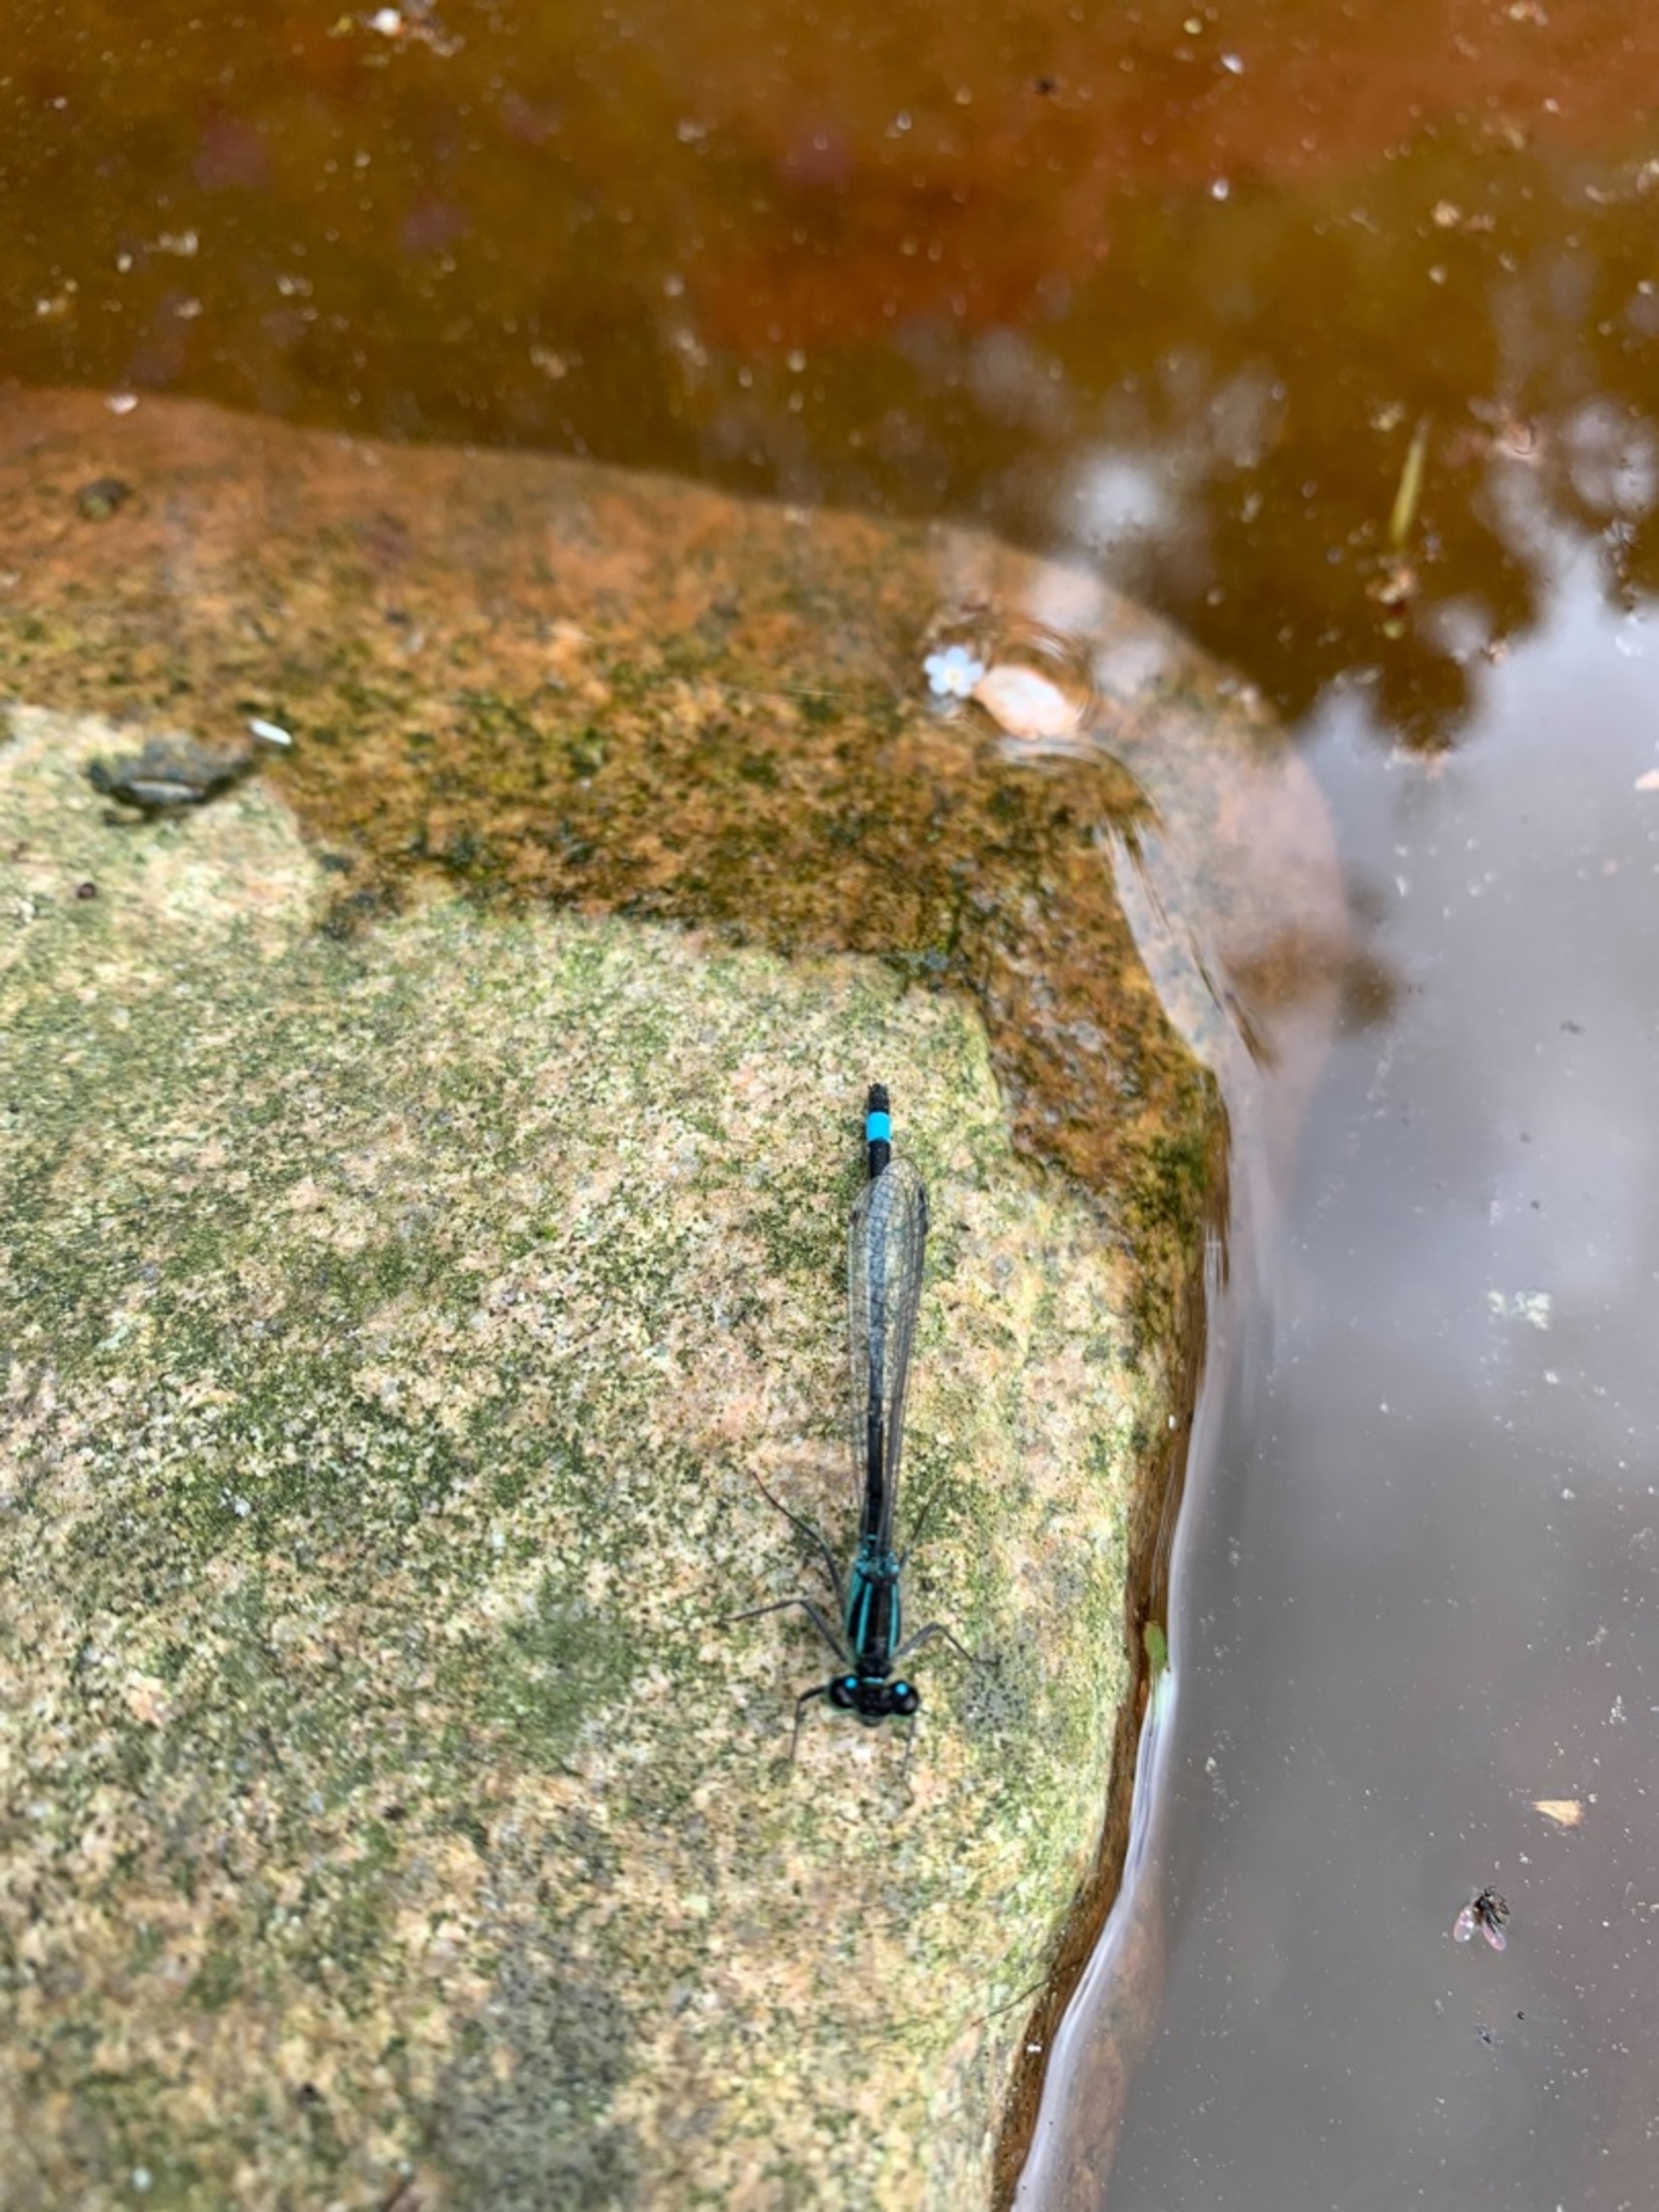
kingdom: Animalia
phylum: Arthropoda
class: Insecta
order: Odonata
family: Coenagrionidae
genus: Ischnura
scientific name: Ischnura elegans
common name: Stor farvevandnymfe
